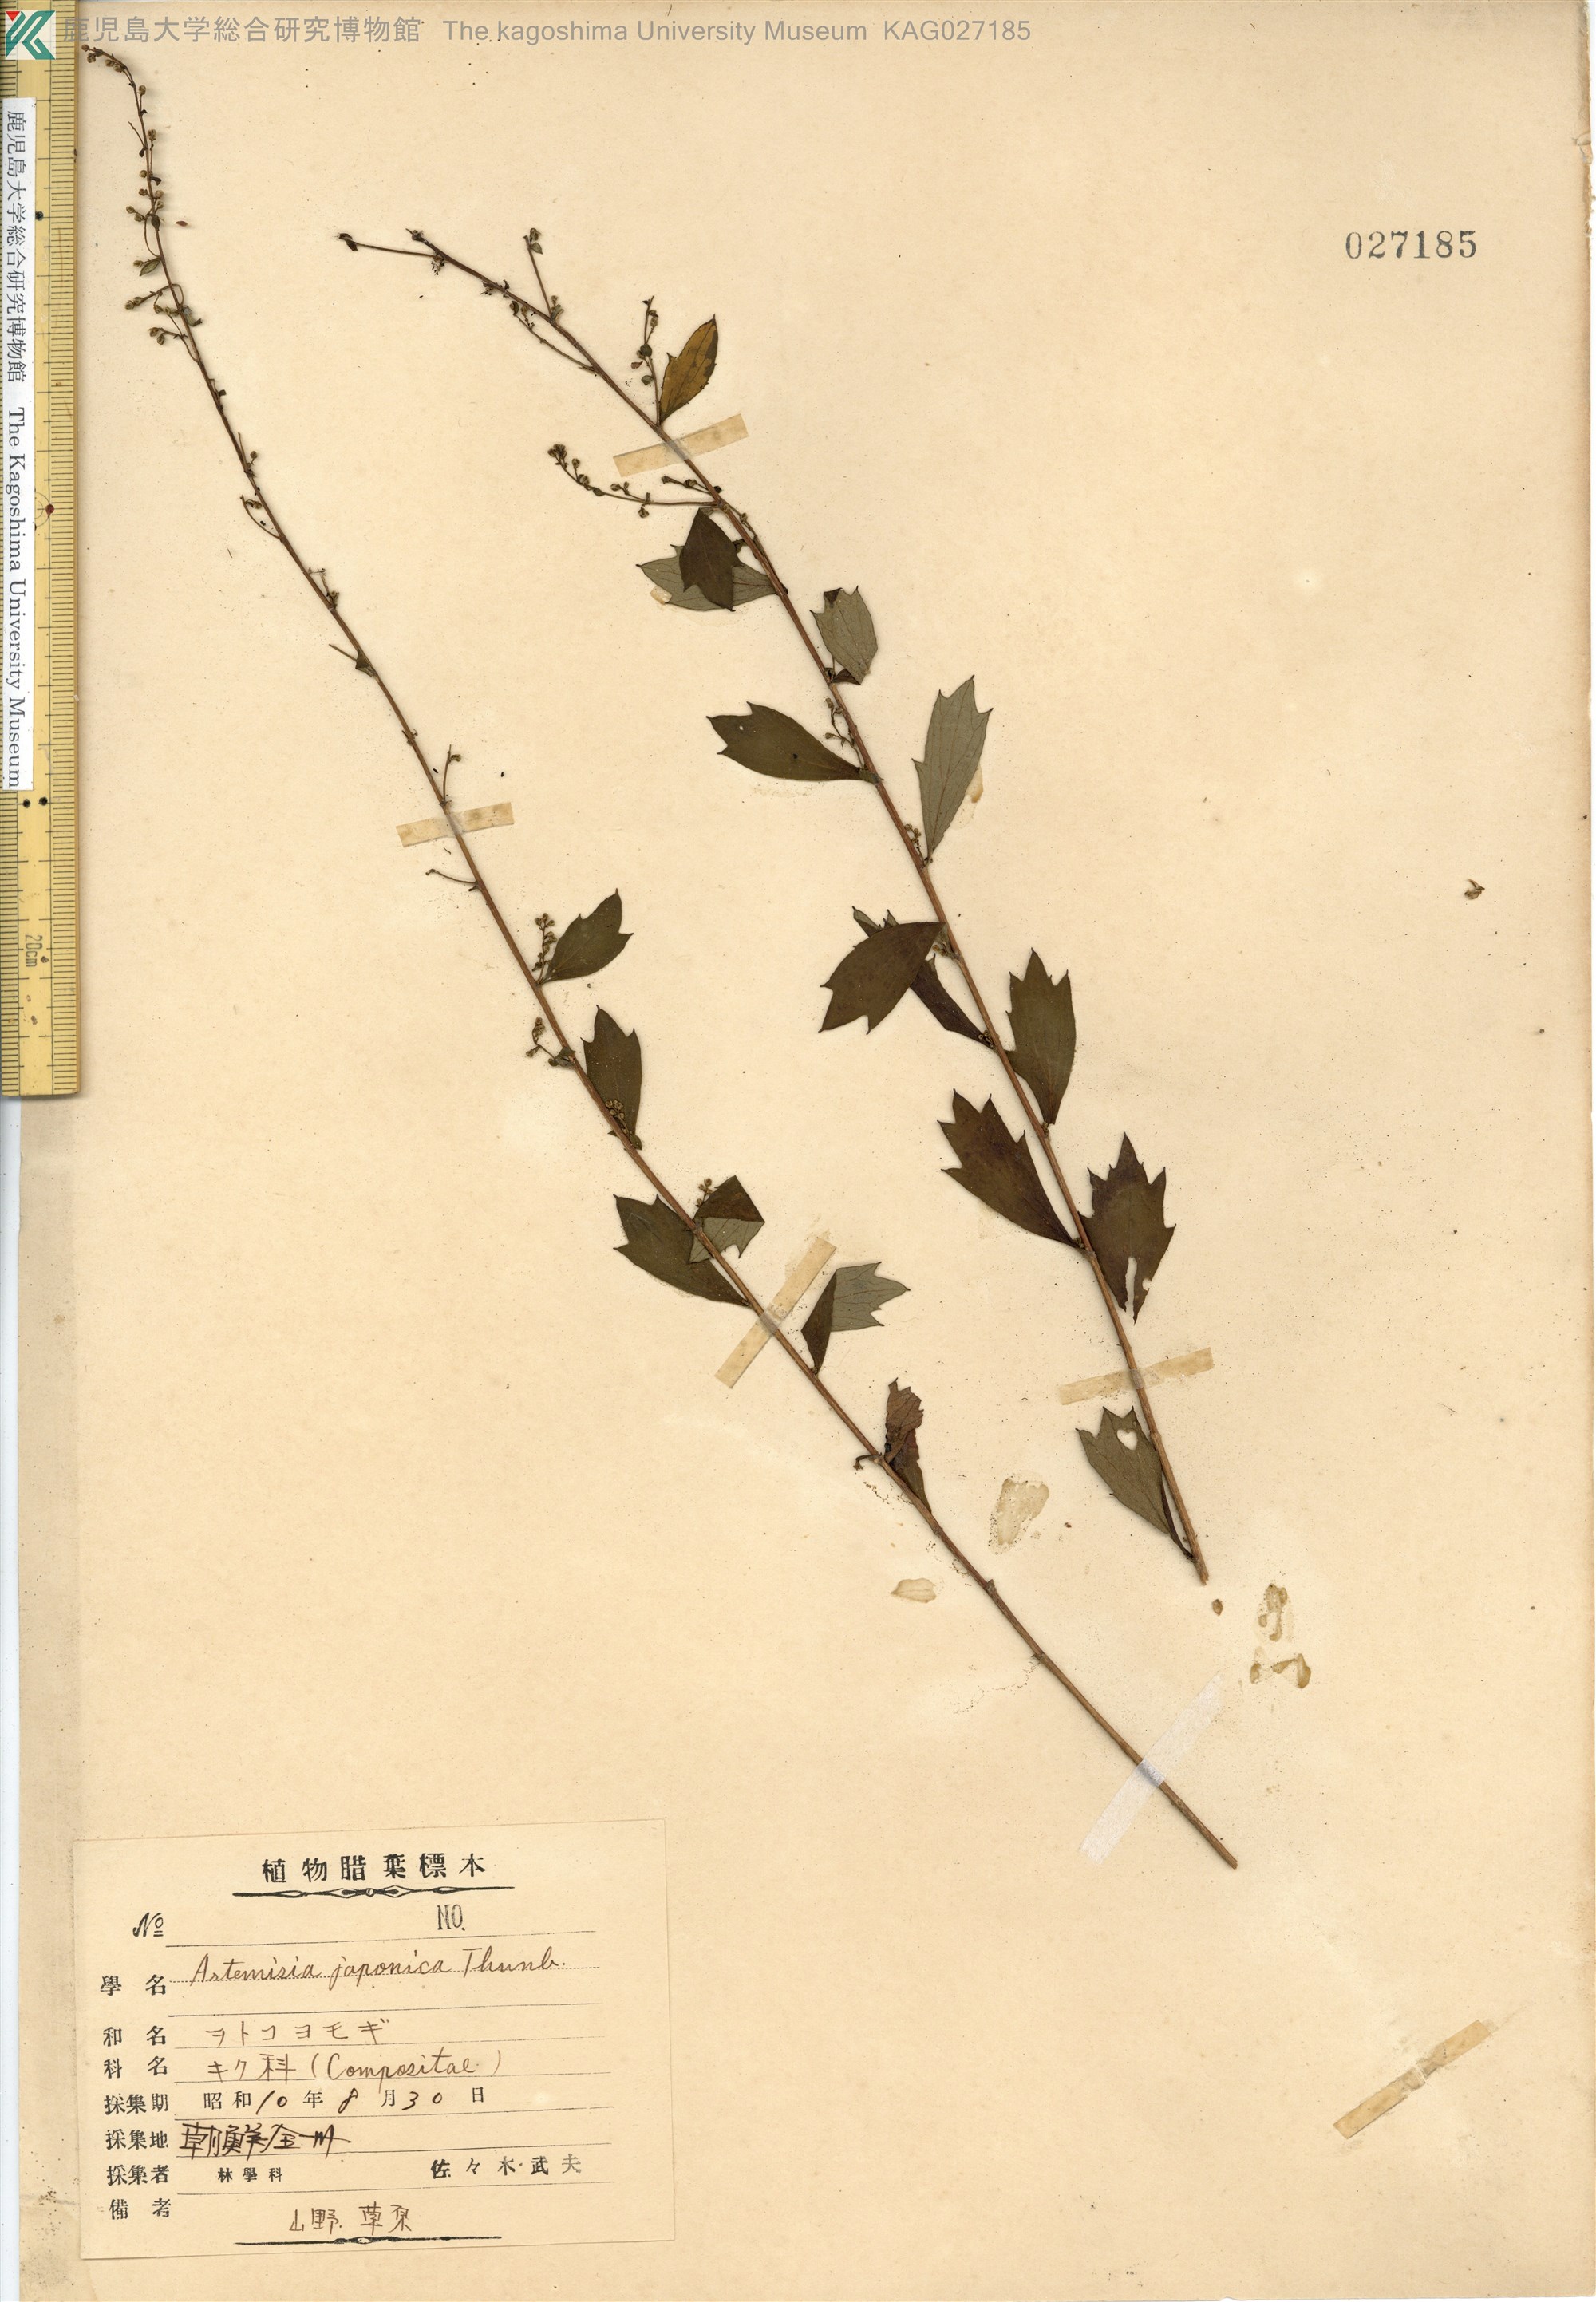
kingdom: Plantae
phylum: Tracheophyta
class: Magnoliopsida
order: Asterales
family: Asteraceae
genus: Artemisia
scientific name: Artemisia keiskeana
